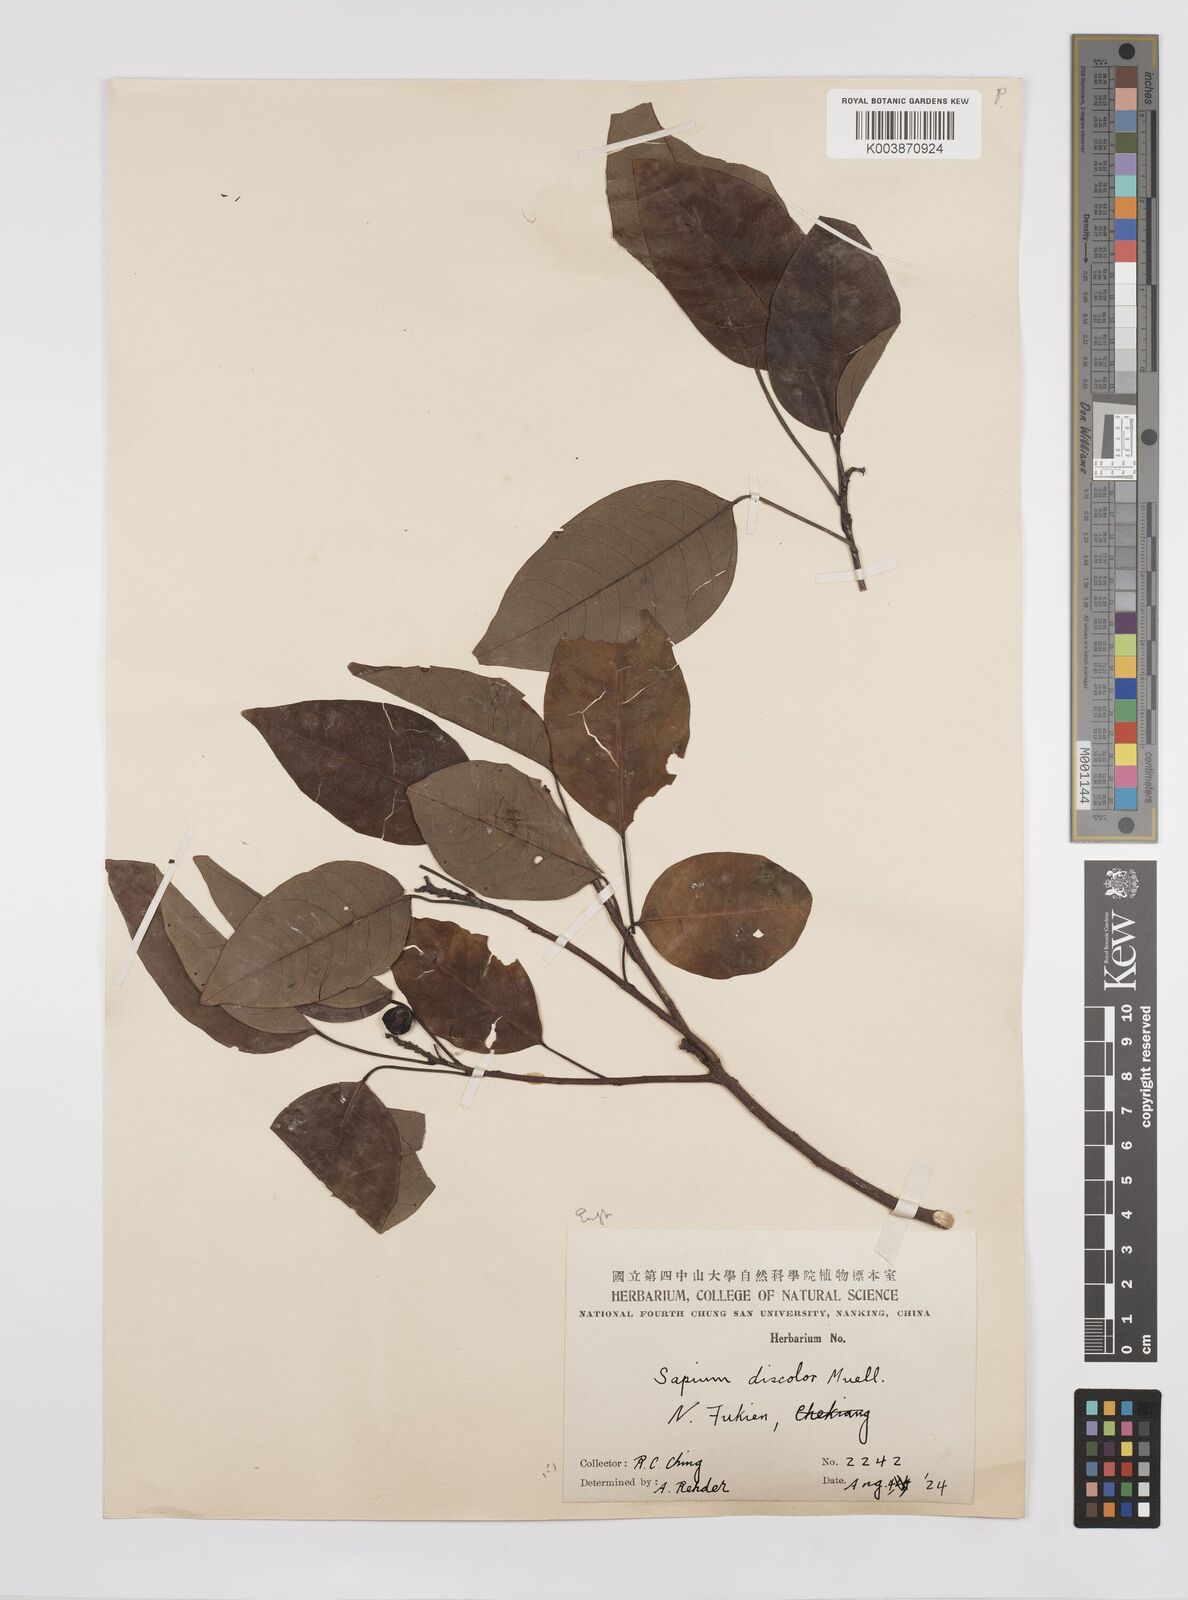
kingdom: Plantae
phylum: Tracheophyta
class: Magnoliopsida
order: Malpighiales
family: Euphorbiaceae
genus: Triadica
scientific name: Triadica cochinchinensis
